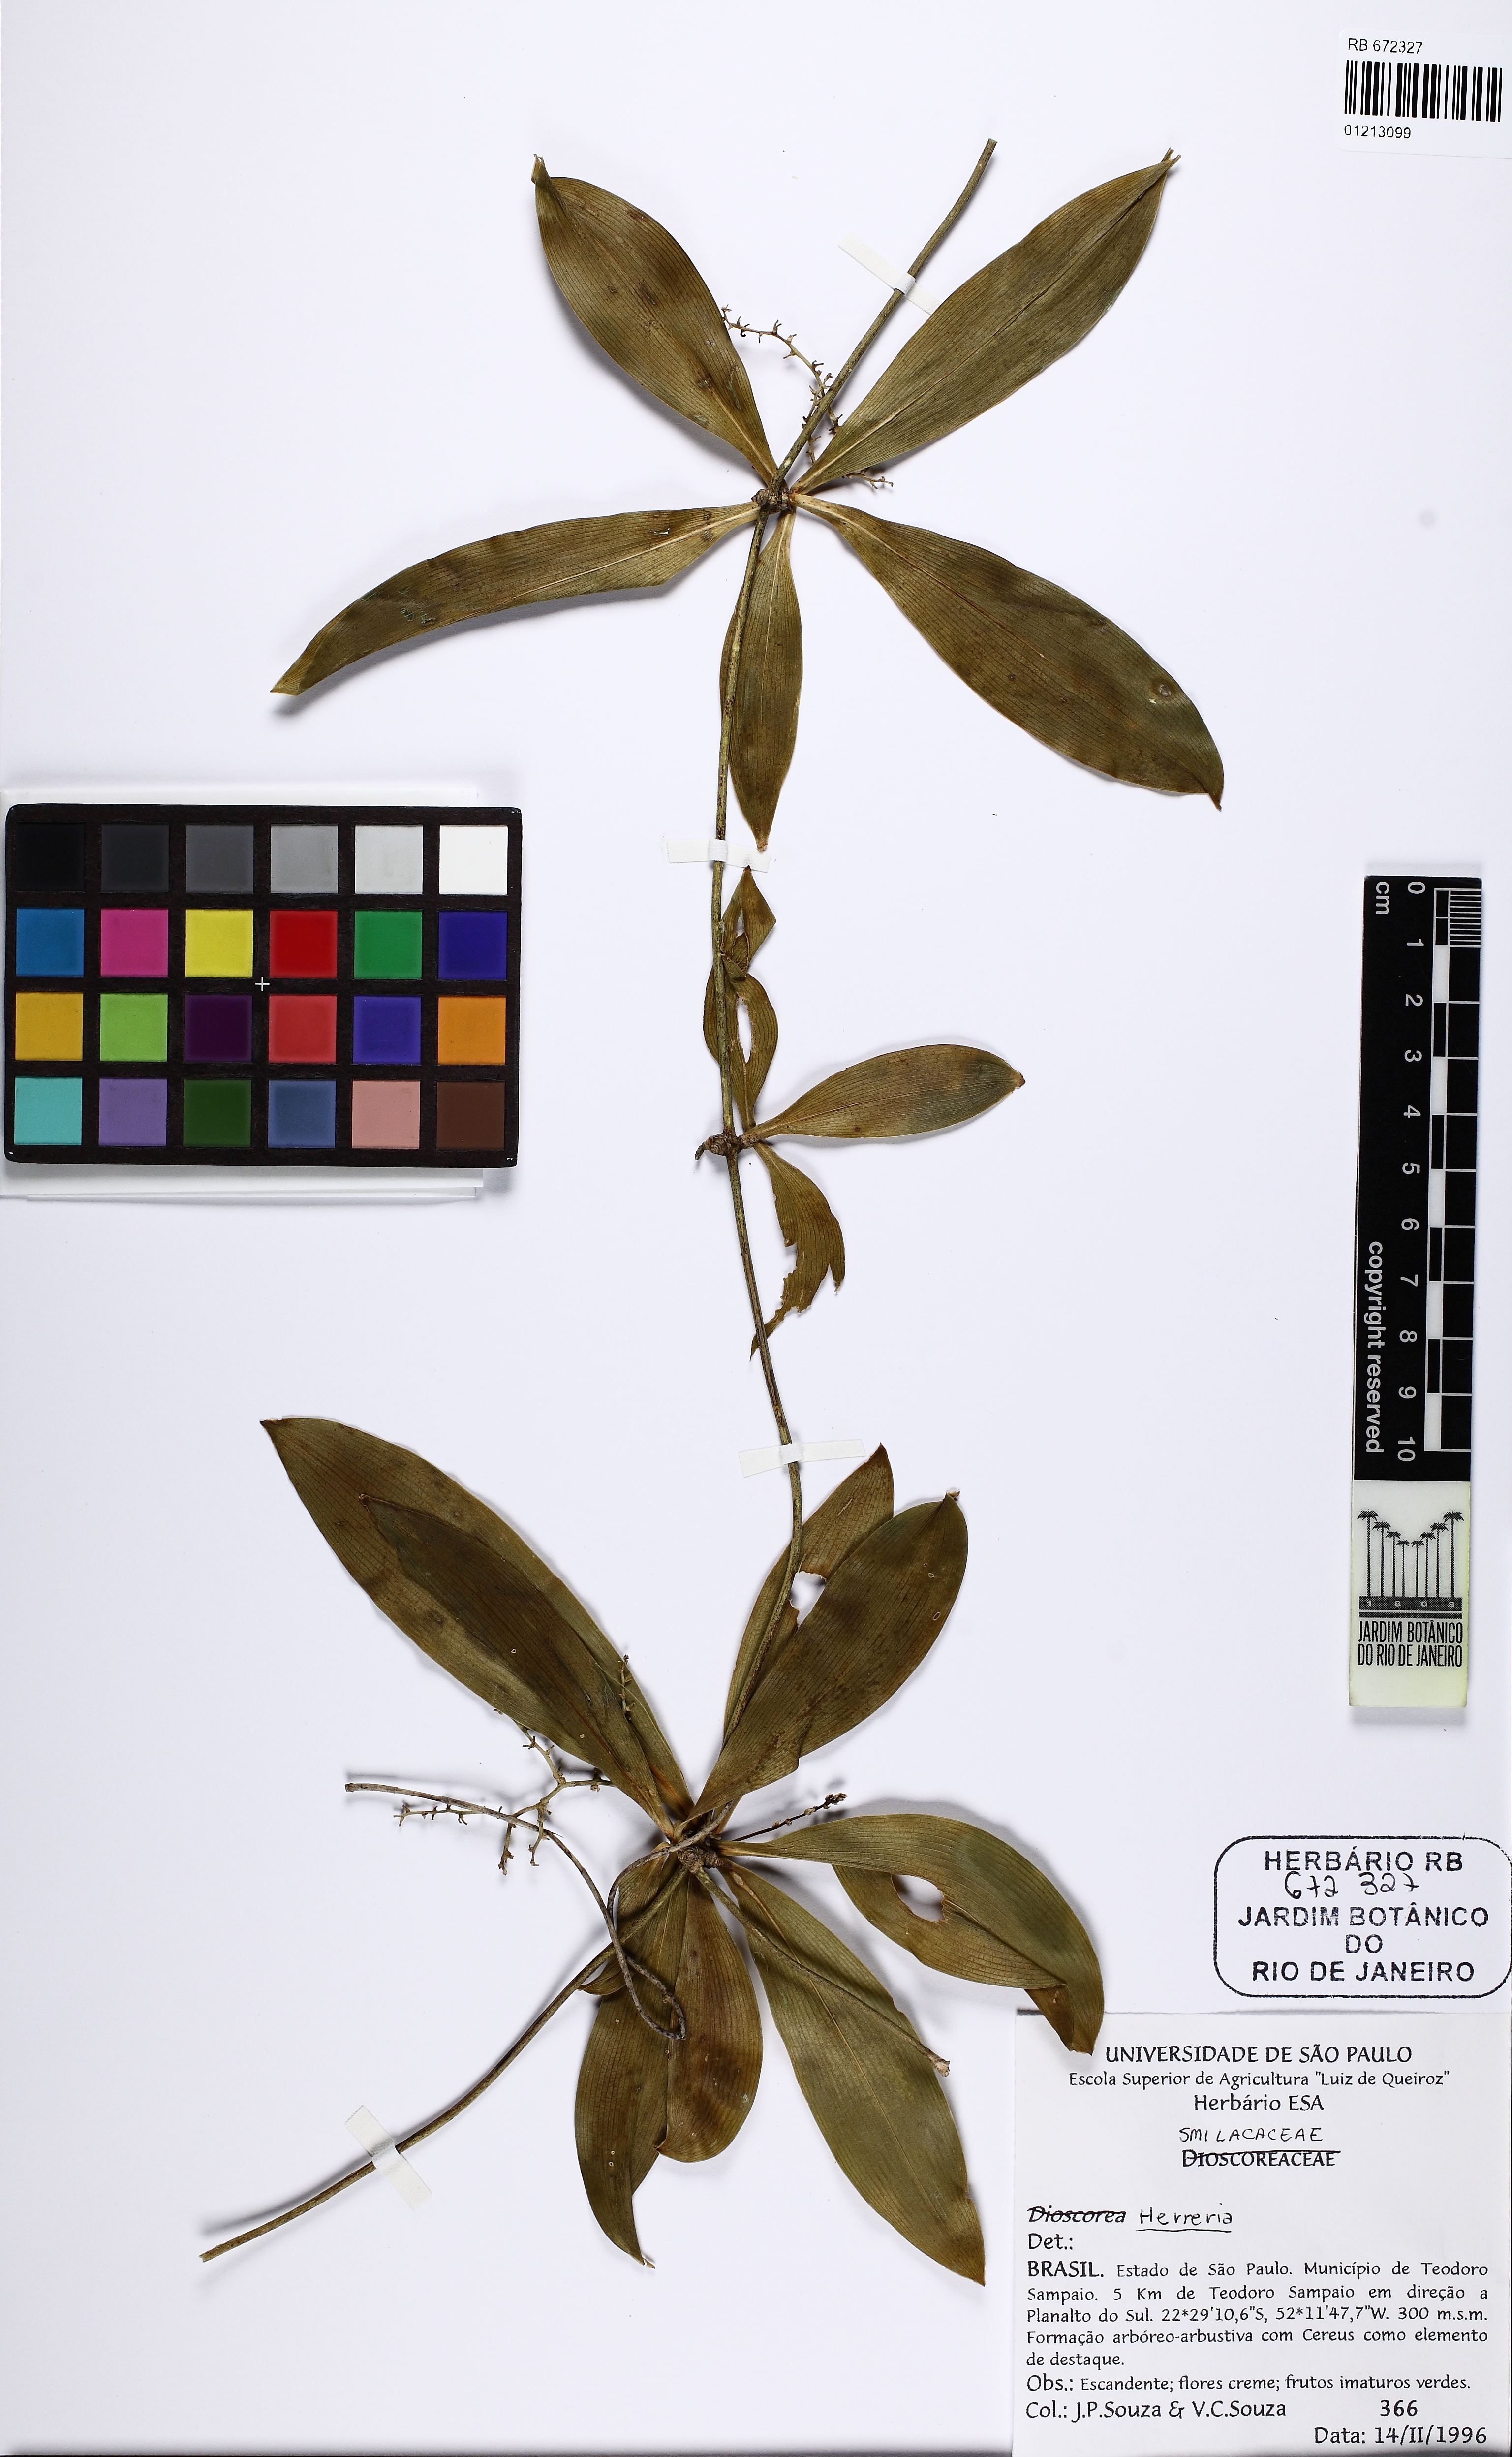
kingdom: Plantae
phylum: Tracheophyta
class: Liliopsida
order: Asparagales
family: Asparagaceae
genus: Herreria
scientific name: Herreria
